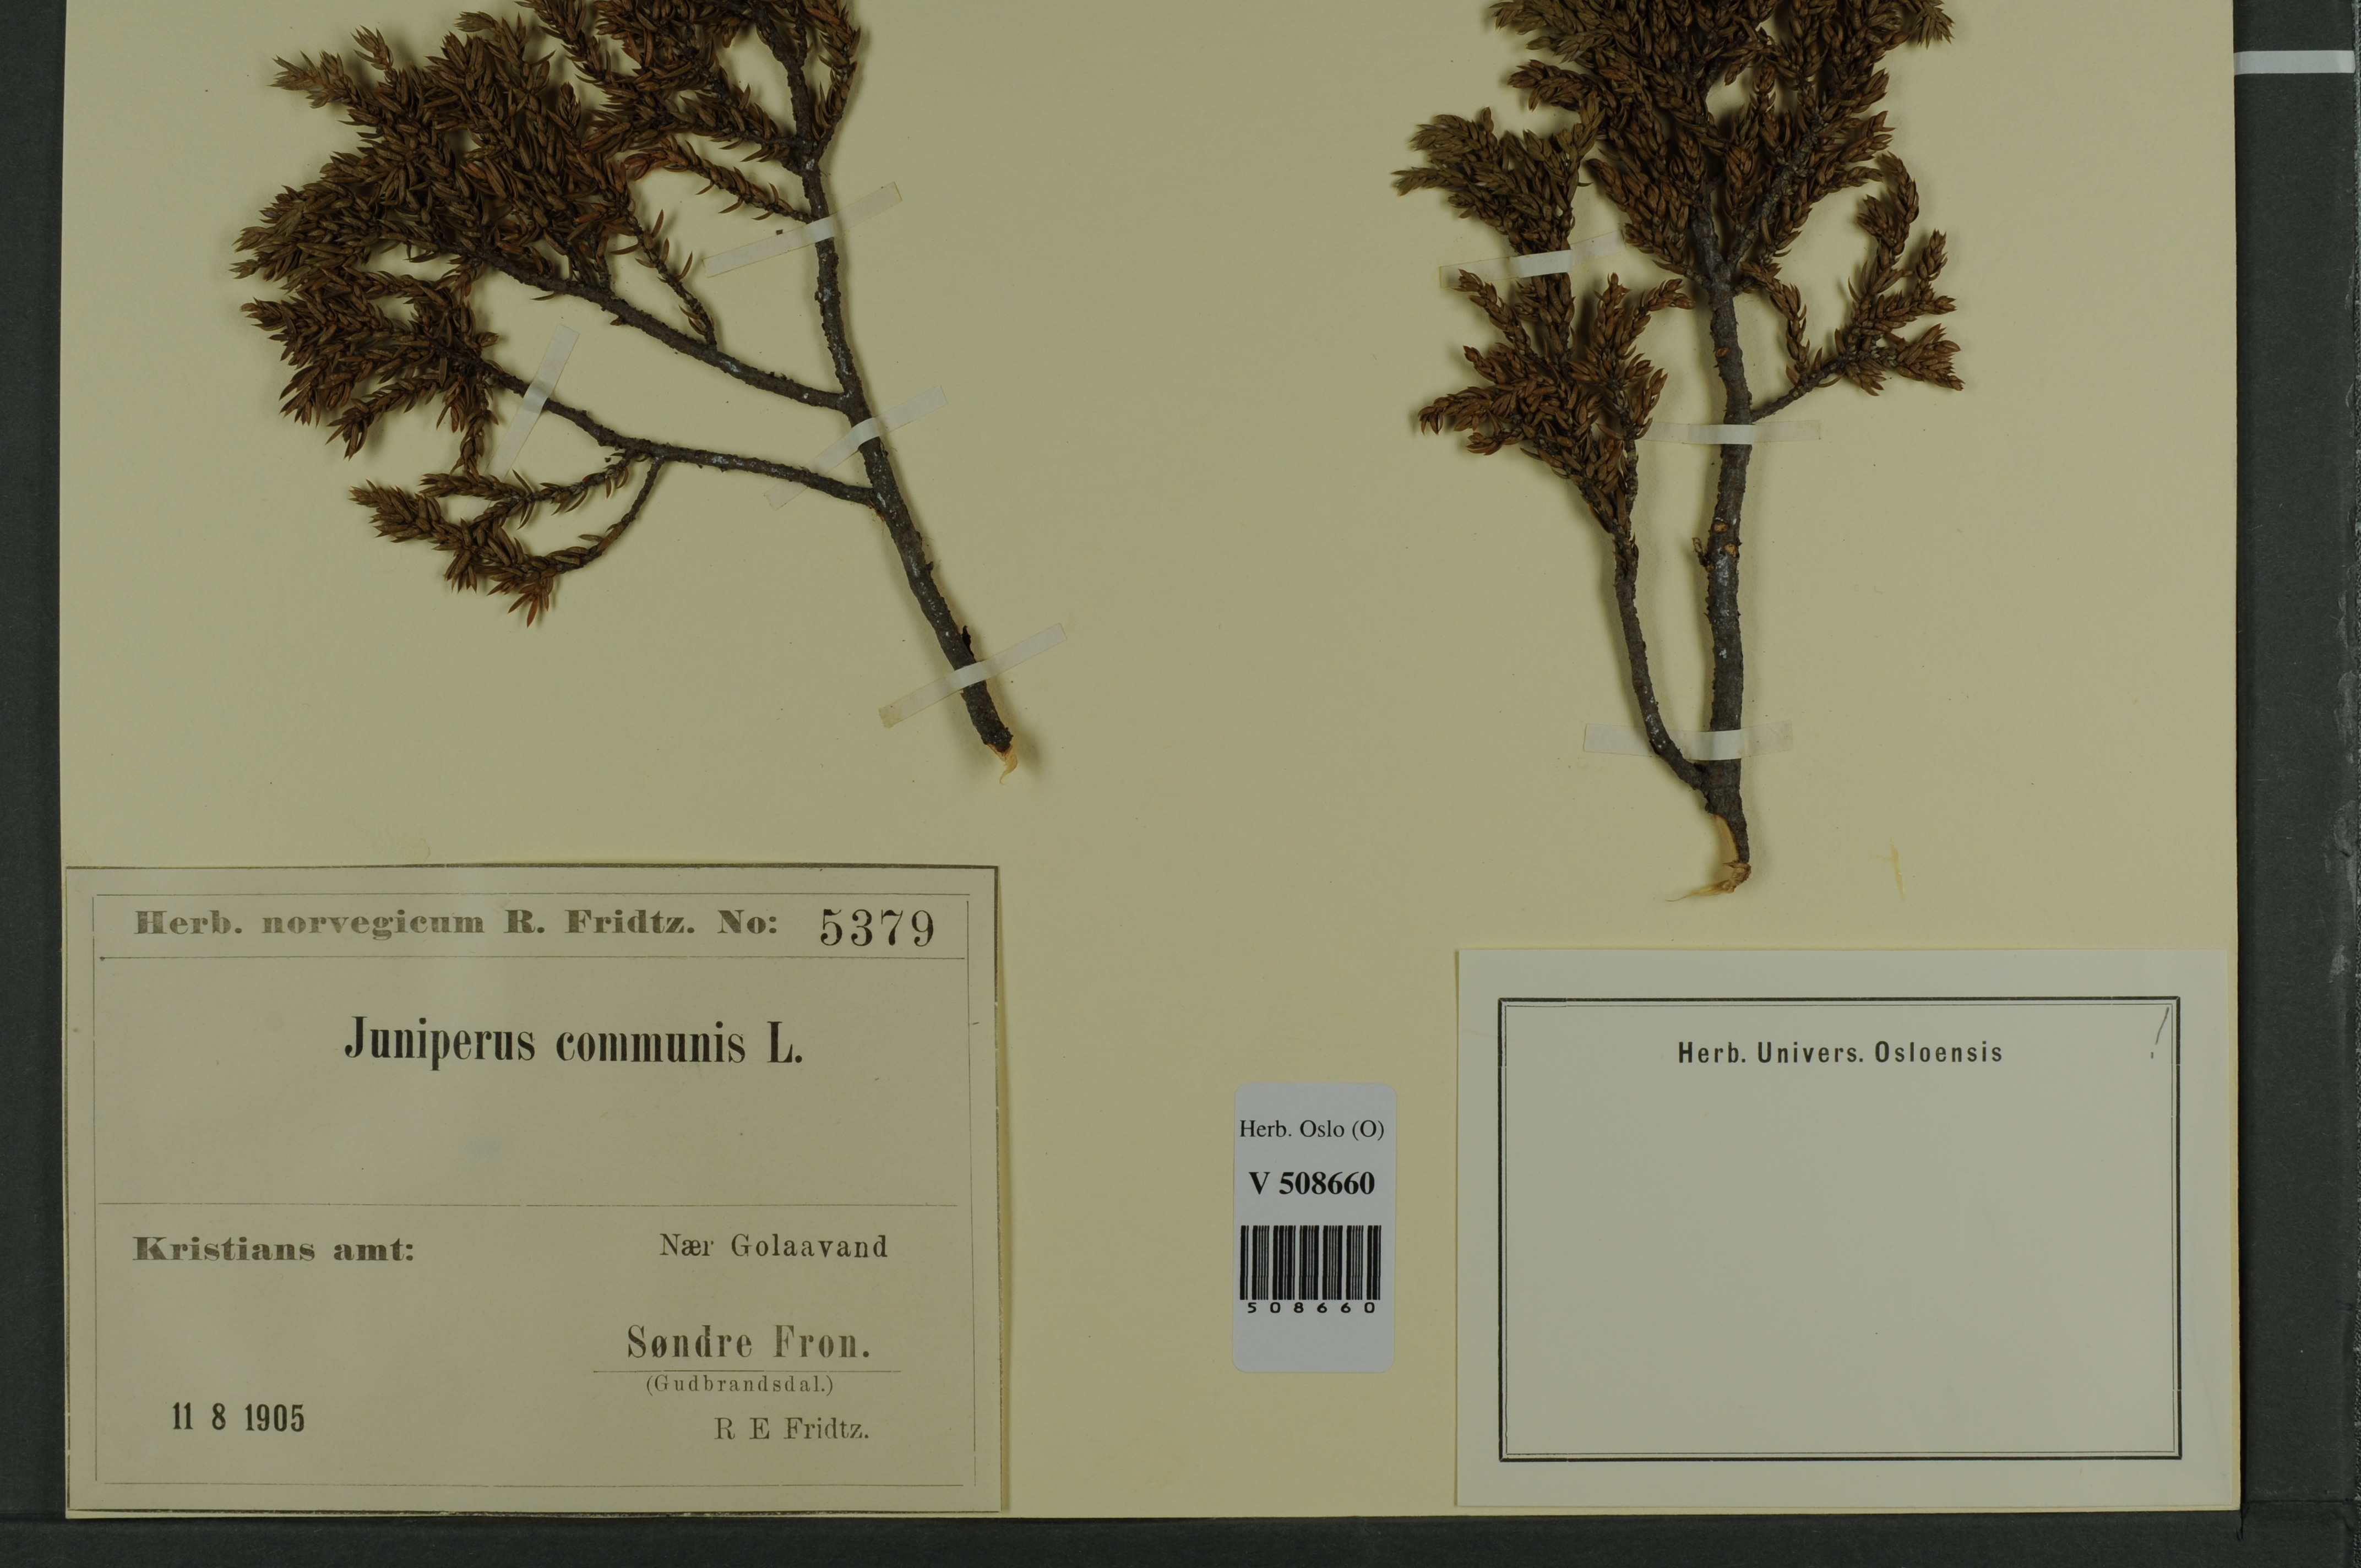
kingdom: Plantae
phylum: Tracheophyta
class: Pinopsida
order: Pinales
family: Cupressaceae
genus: Juniperus
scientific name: Juniperus communis
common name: Common juniper
